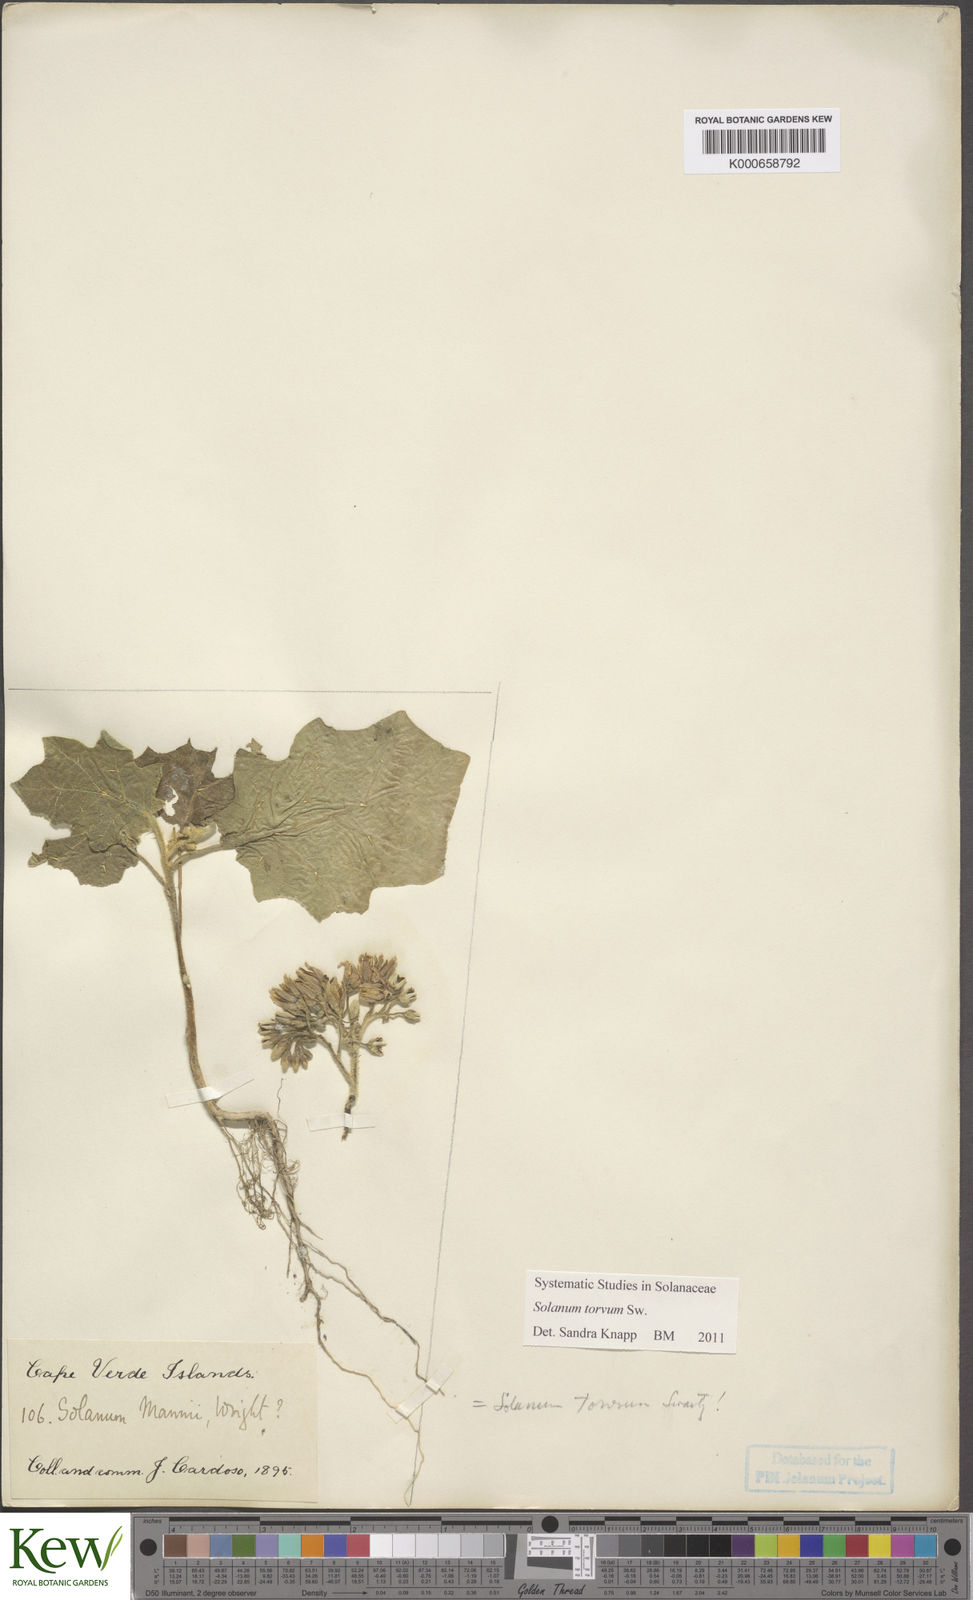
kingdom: Plantae
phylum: Tracheophyta
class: Magnoliopsida
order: Solanales
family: Solanaceae
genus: Solanum
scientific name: Solanum torvum
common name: Turkey berry
